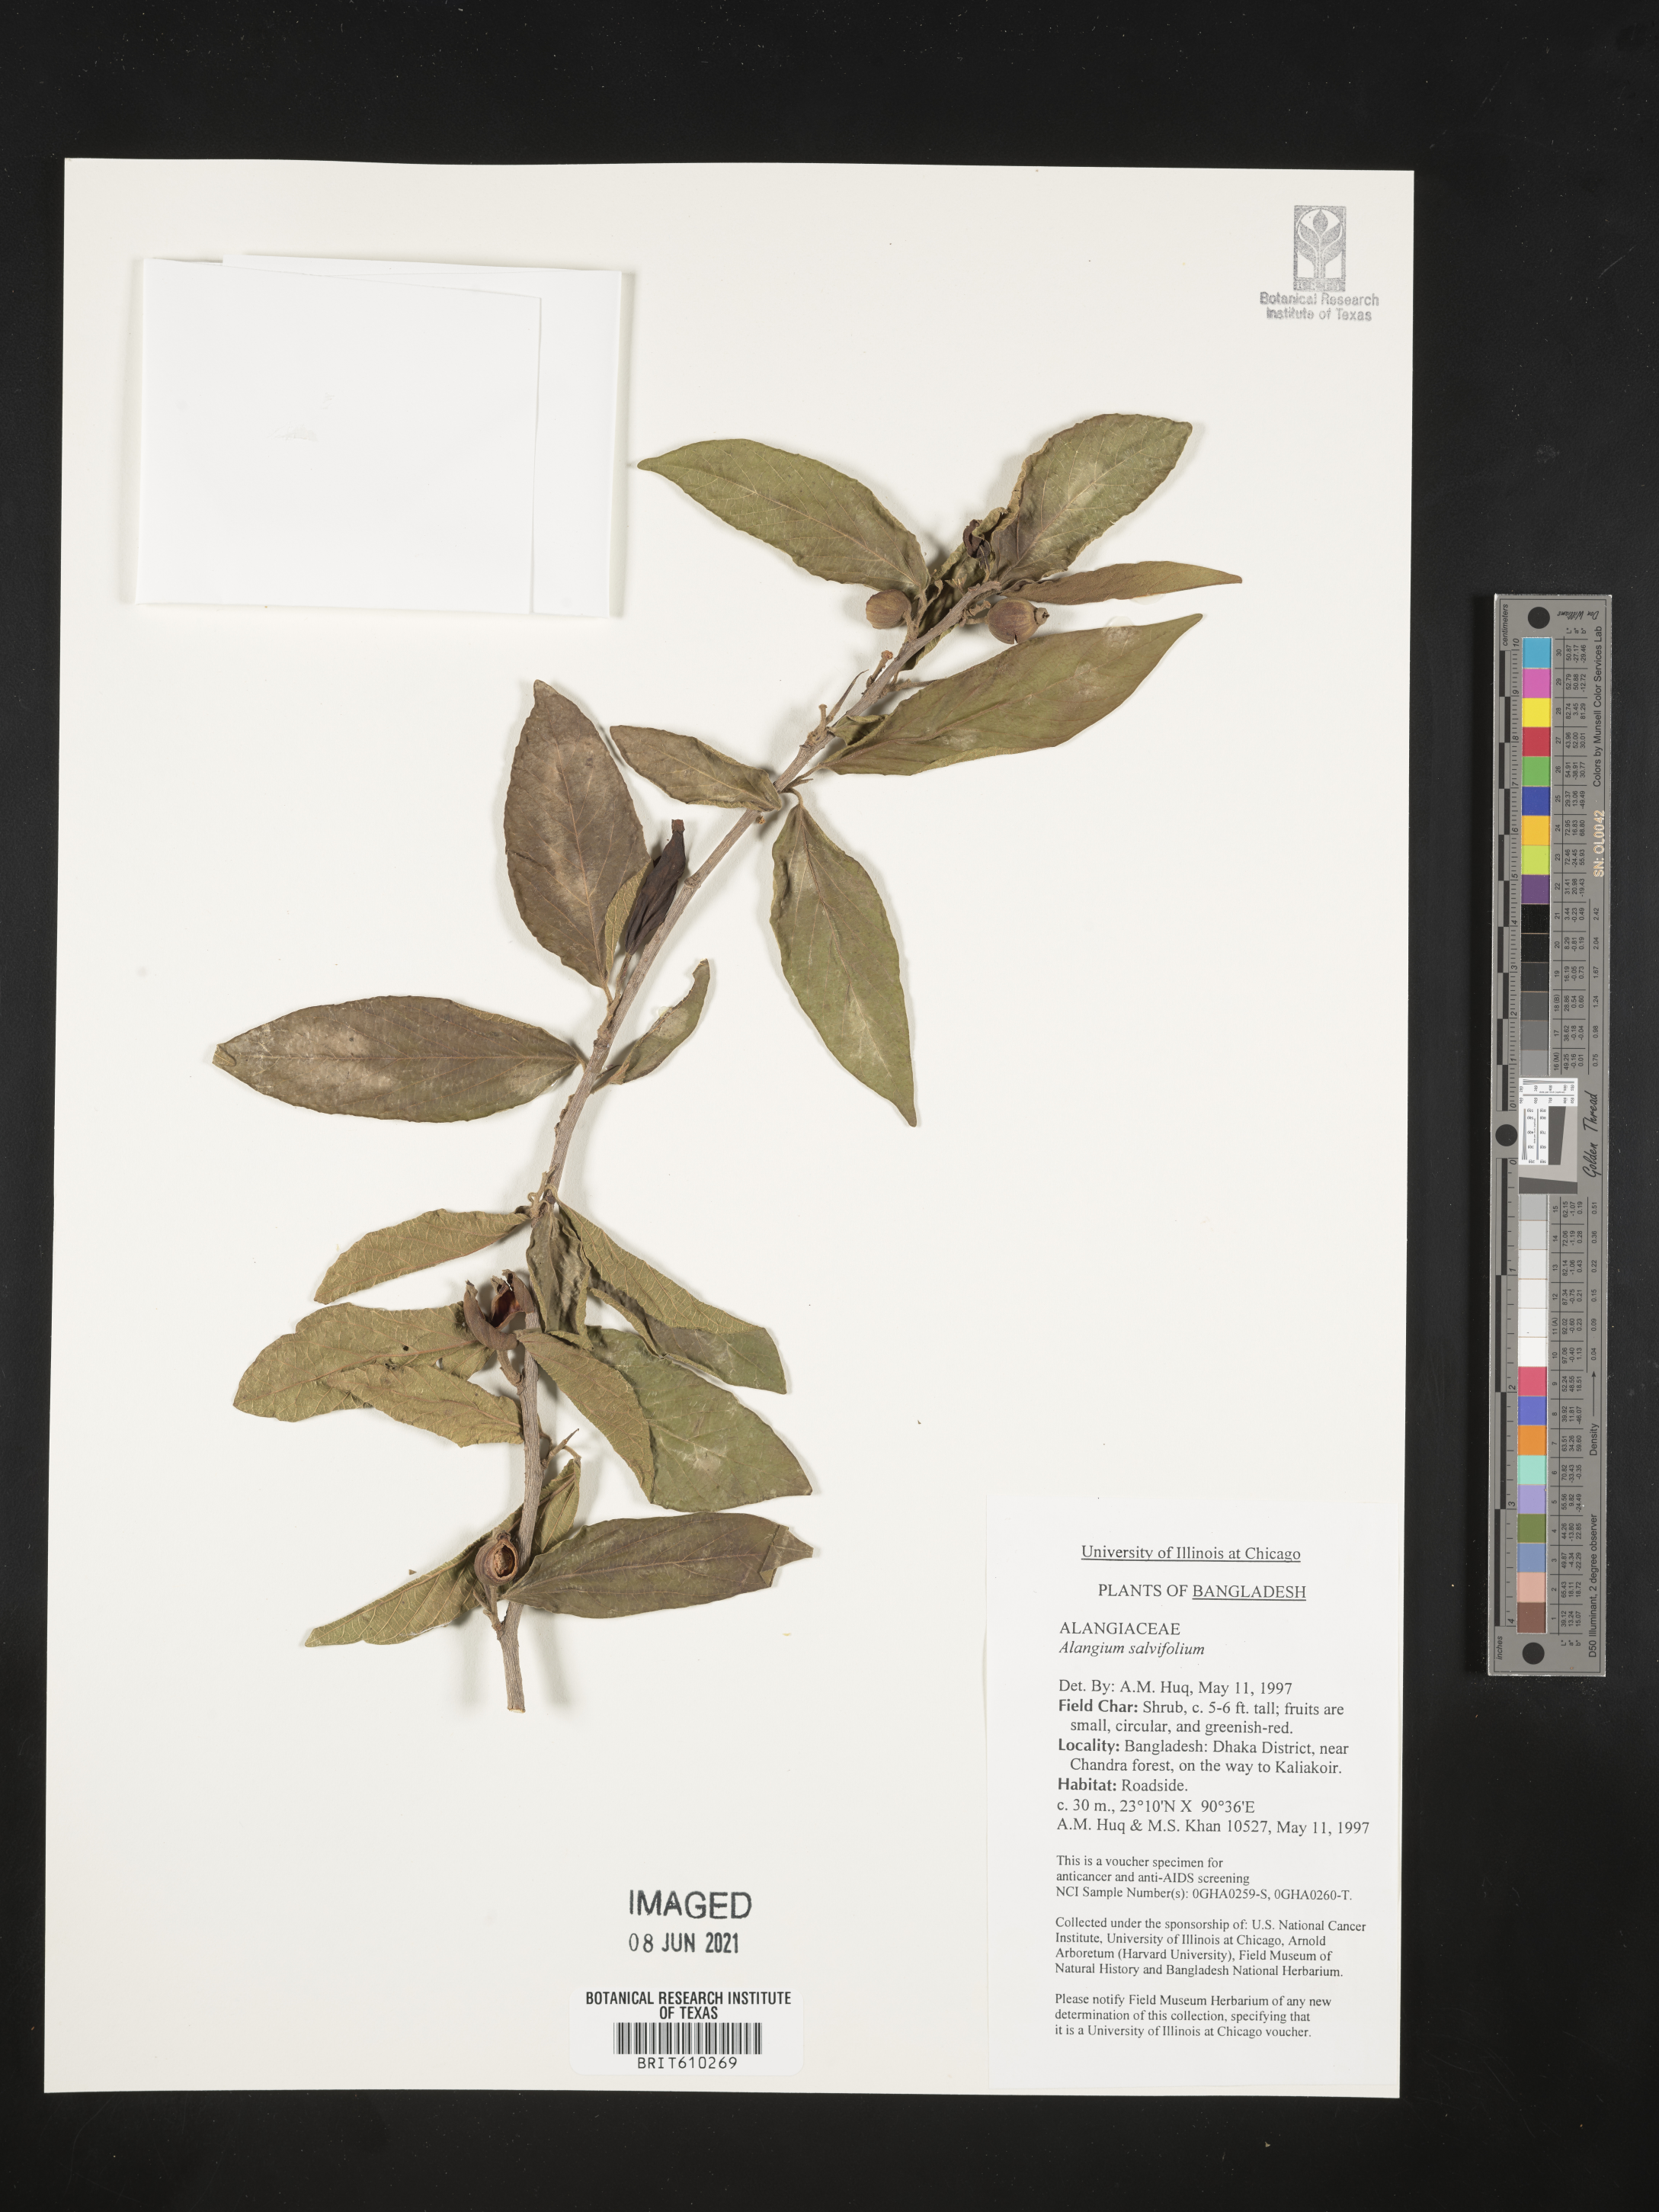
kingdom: Plantae
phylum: Tracheophyta
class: Magnoliopsida
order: Cornales
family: Cornaceae
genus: Alangium
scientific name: Alangium salviifolium
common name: Sage-leaf alangium
